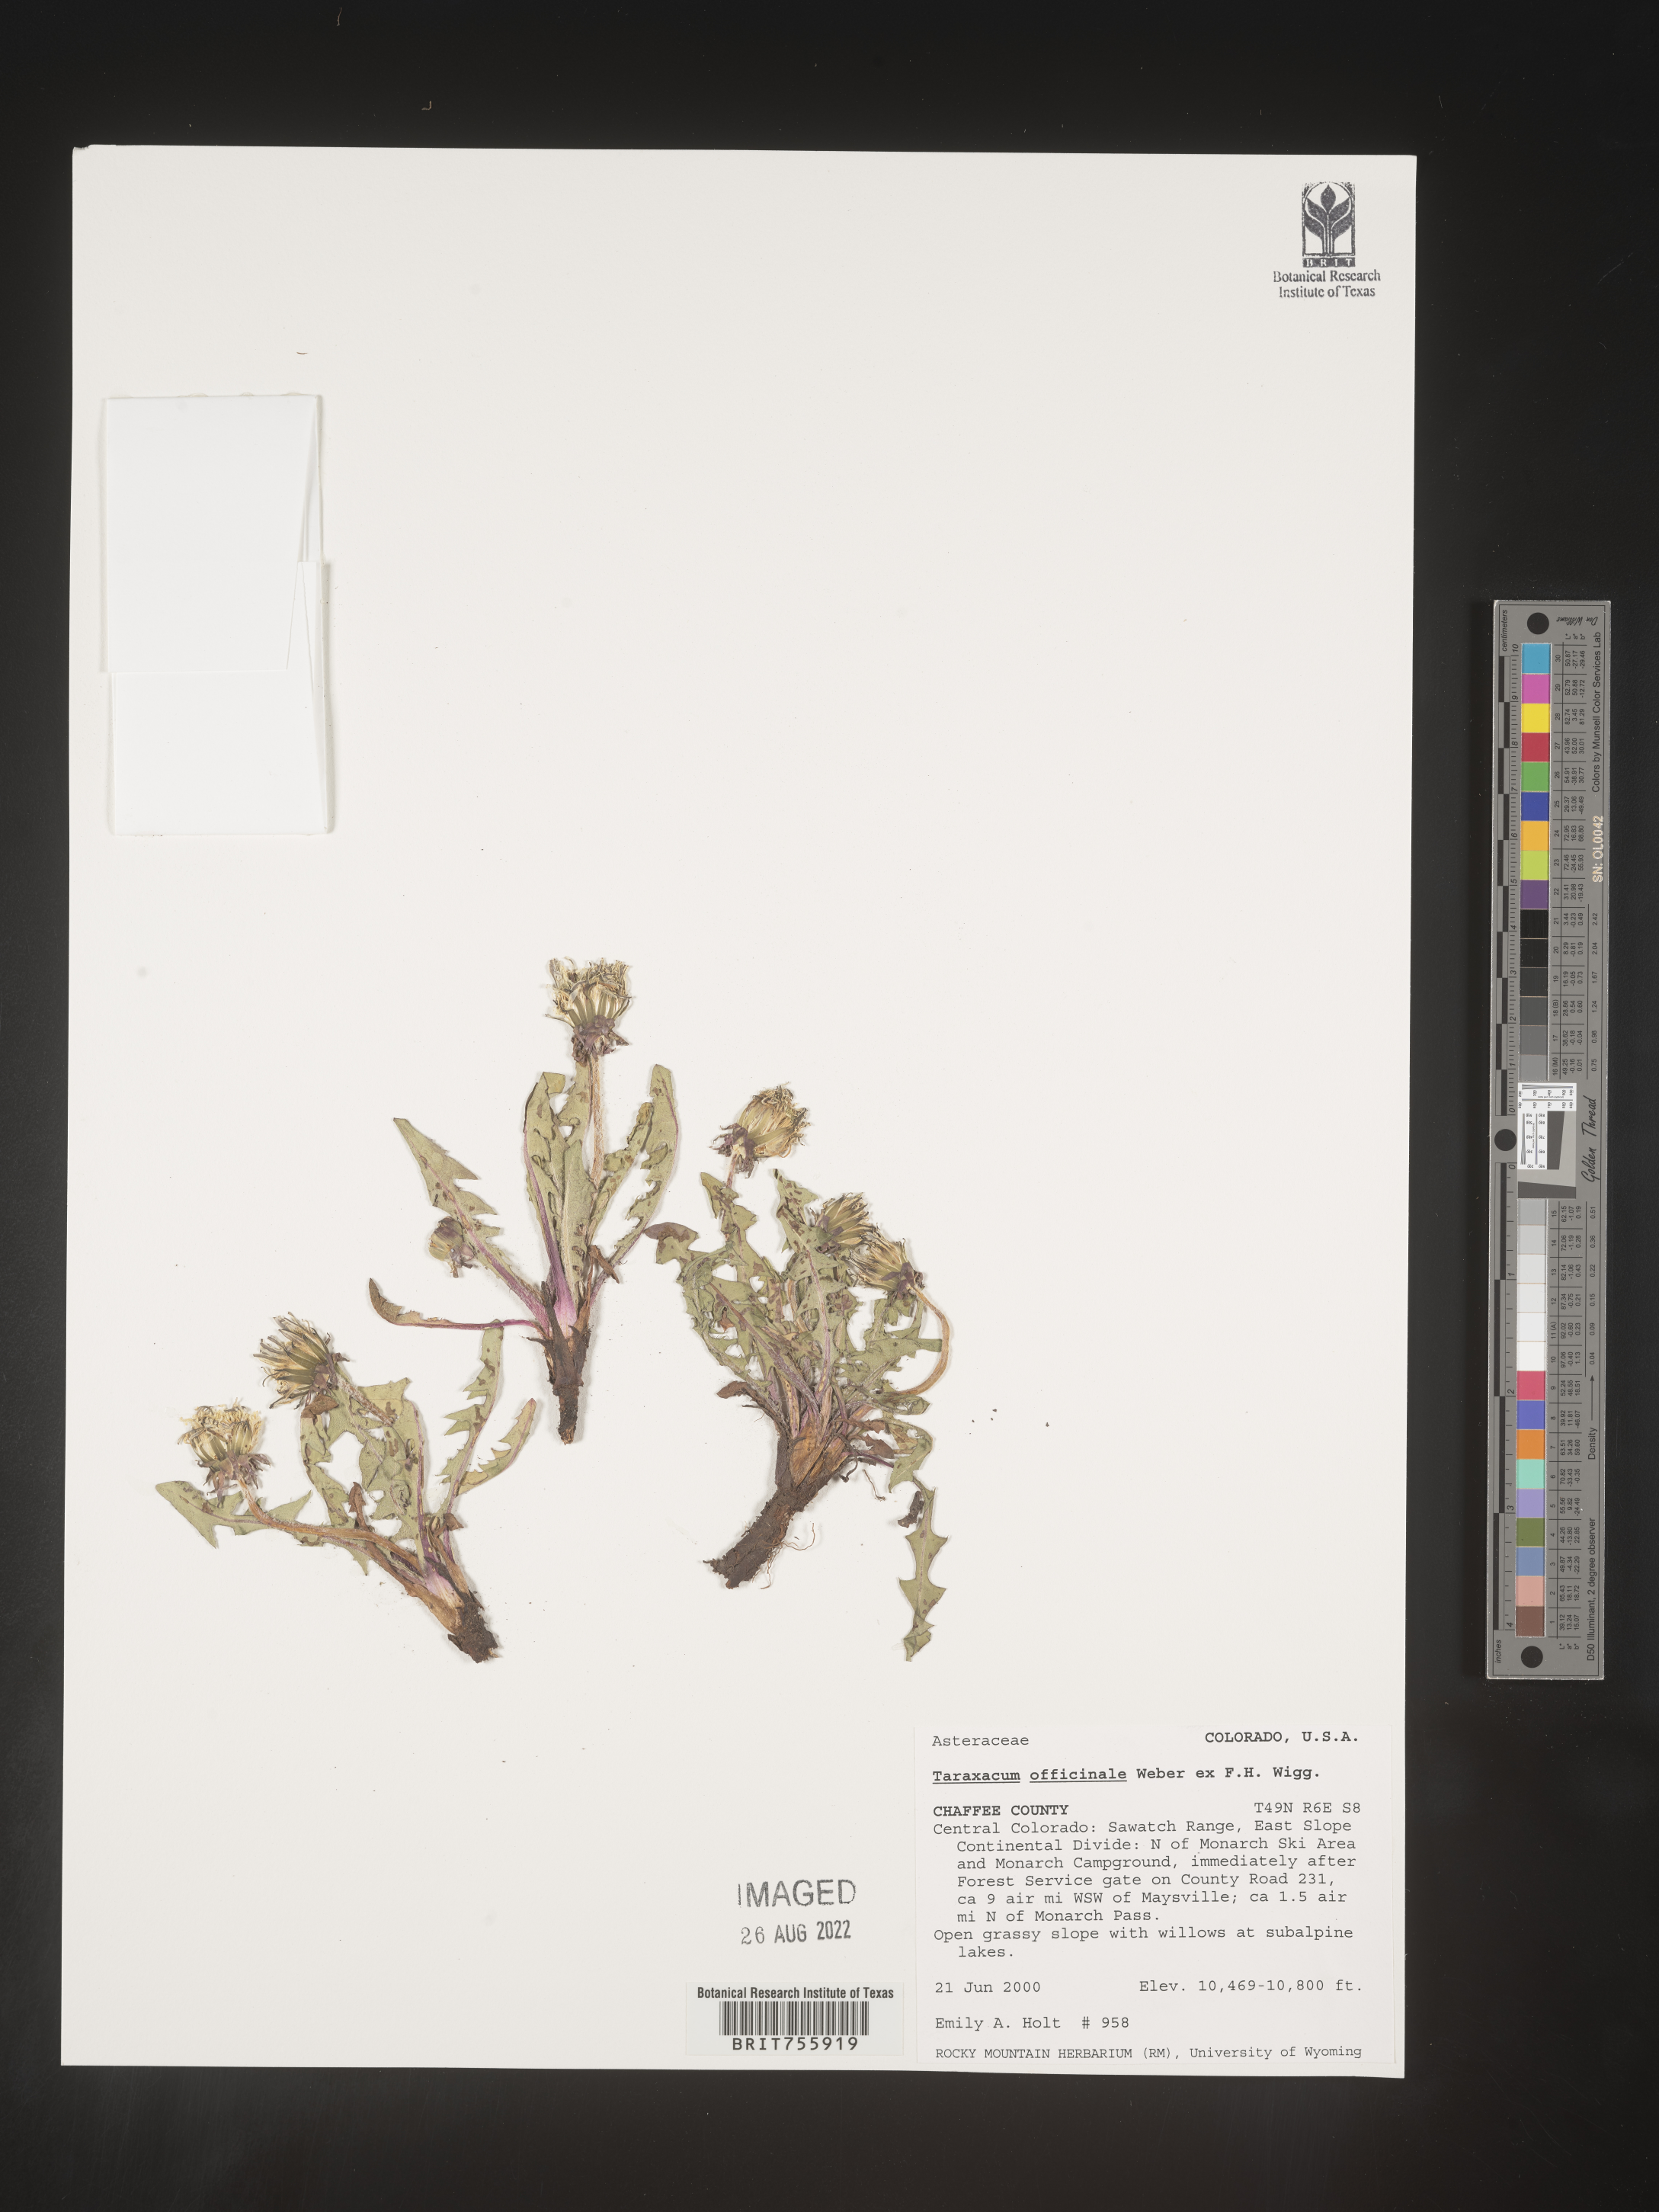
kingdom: Plantae
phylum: Tracheophyta
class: Magnoliopsida
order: Asterales
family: Asteraceae
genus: Taraxacum
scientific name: Taraxacum officinale
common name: Common dandelion
